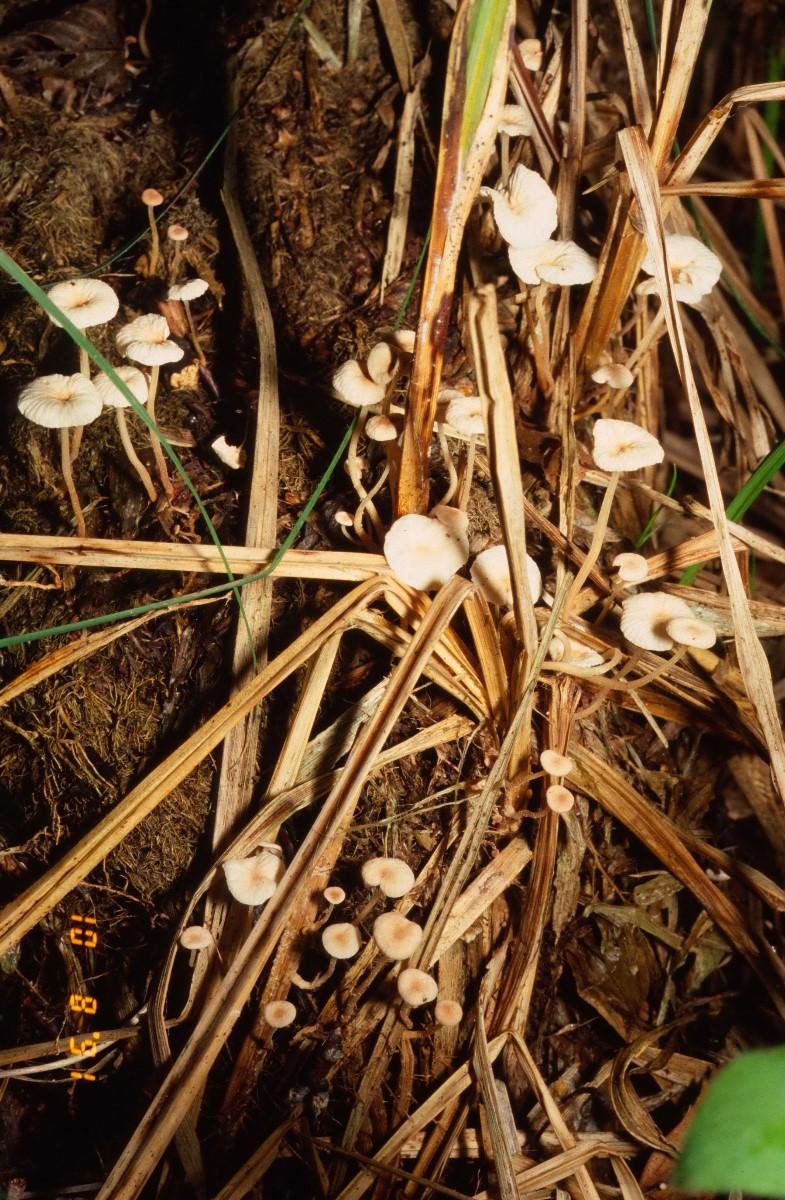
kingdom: Fungi
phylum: Basidiomycota
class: Agaricomycetes
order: Agaricales
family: Omphalotaceae
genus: Collybiopsis
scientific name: Collybiopsis vaillantii
